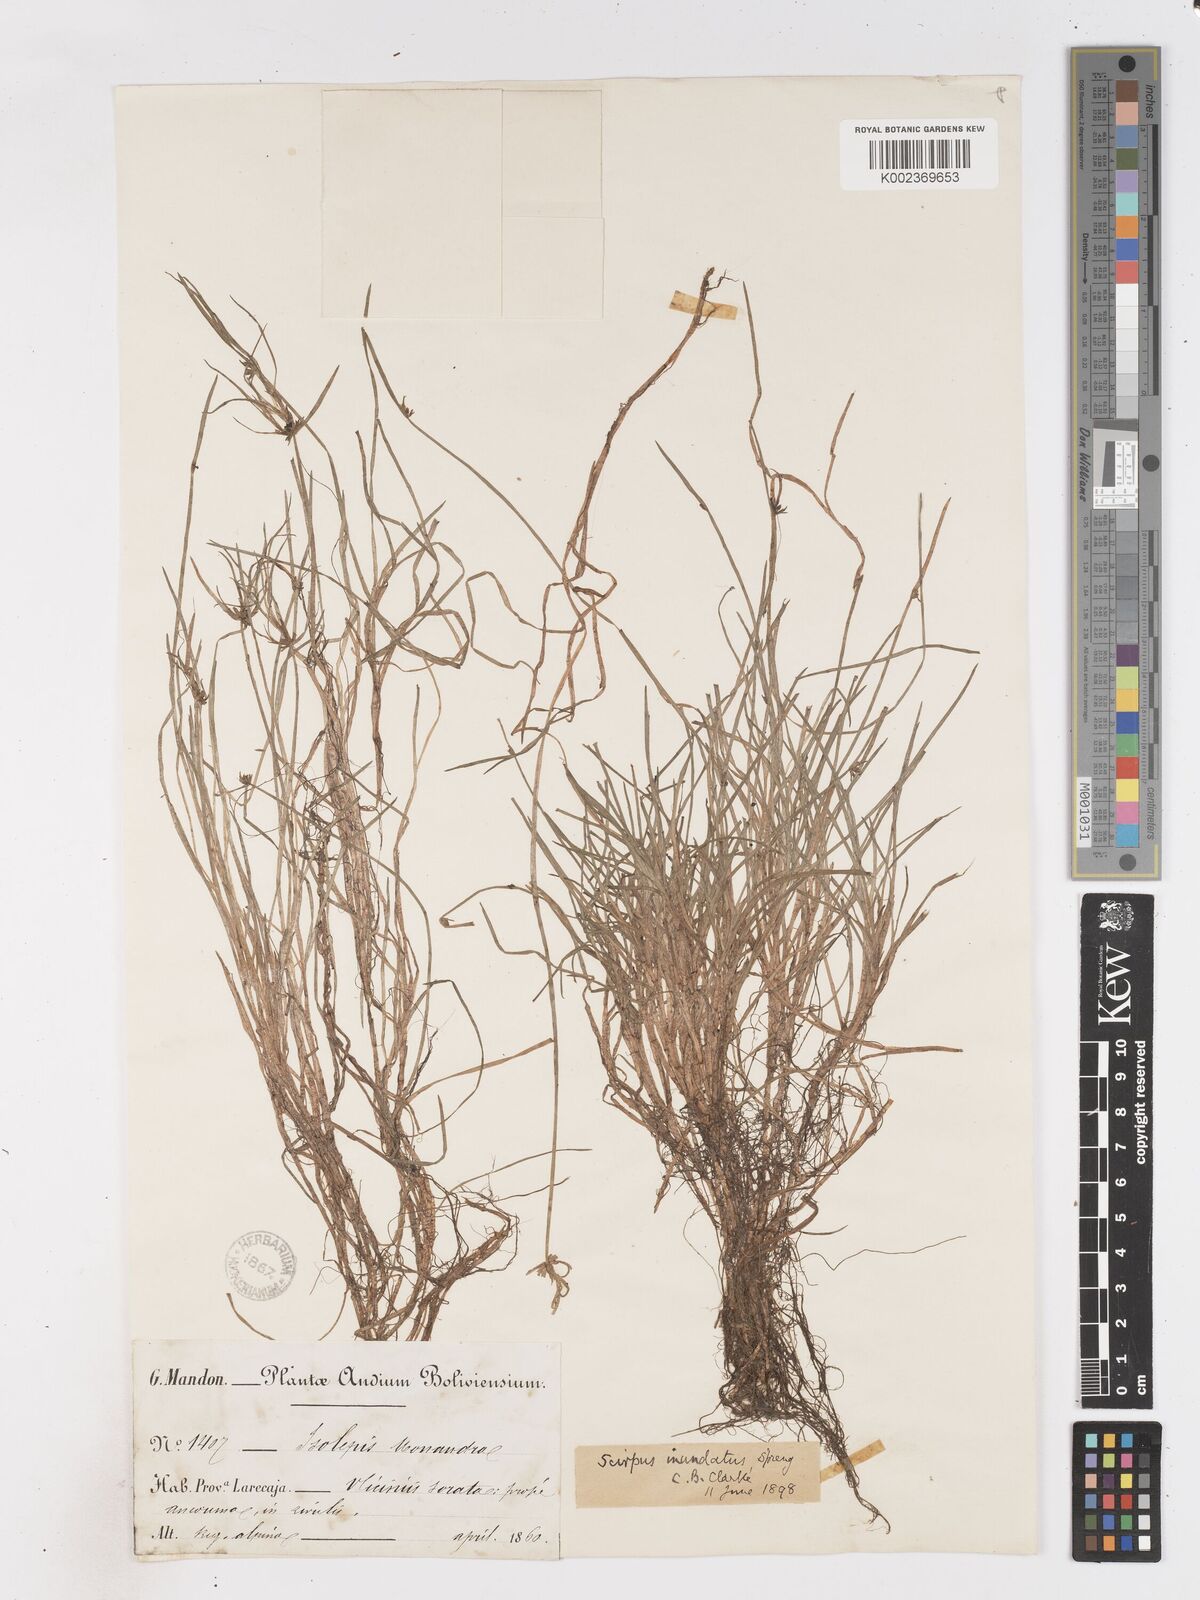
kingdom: Plantae
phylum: Tracheophyta
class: Liliopsida
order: Poales
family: Cyperaceae
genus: Isolepis
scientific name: Isolepis inundata
